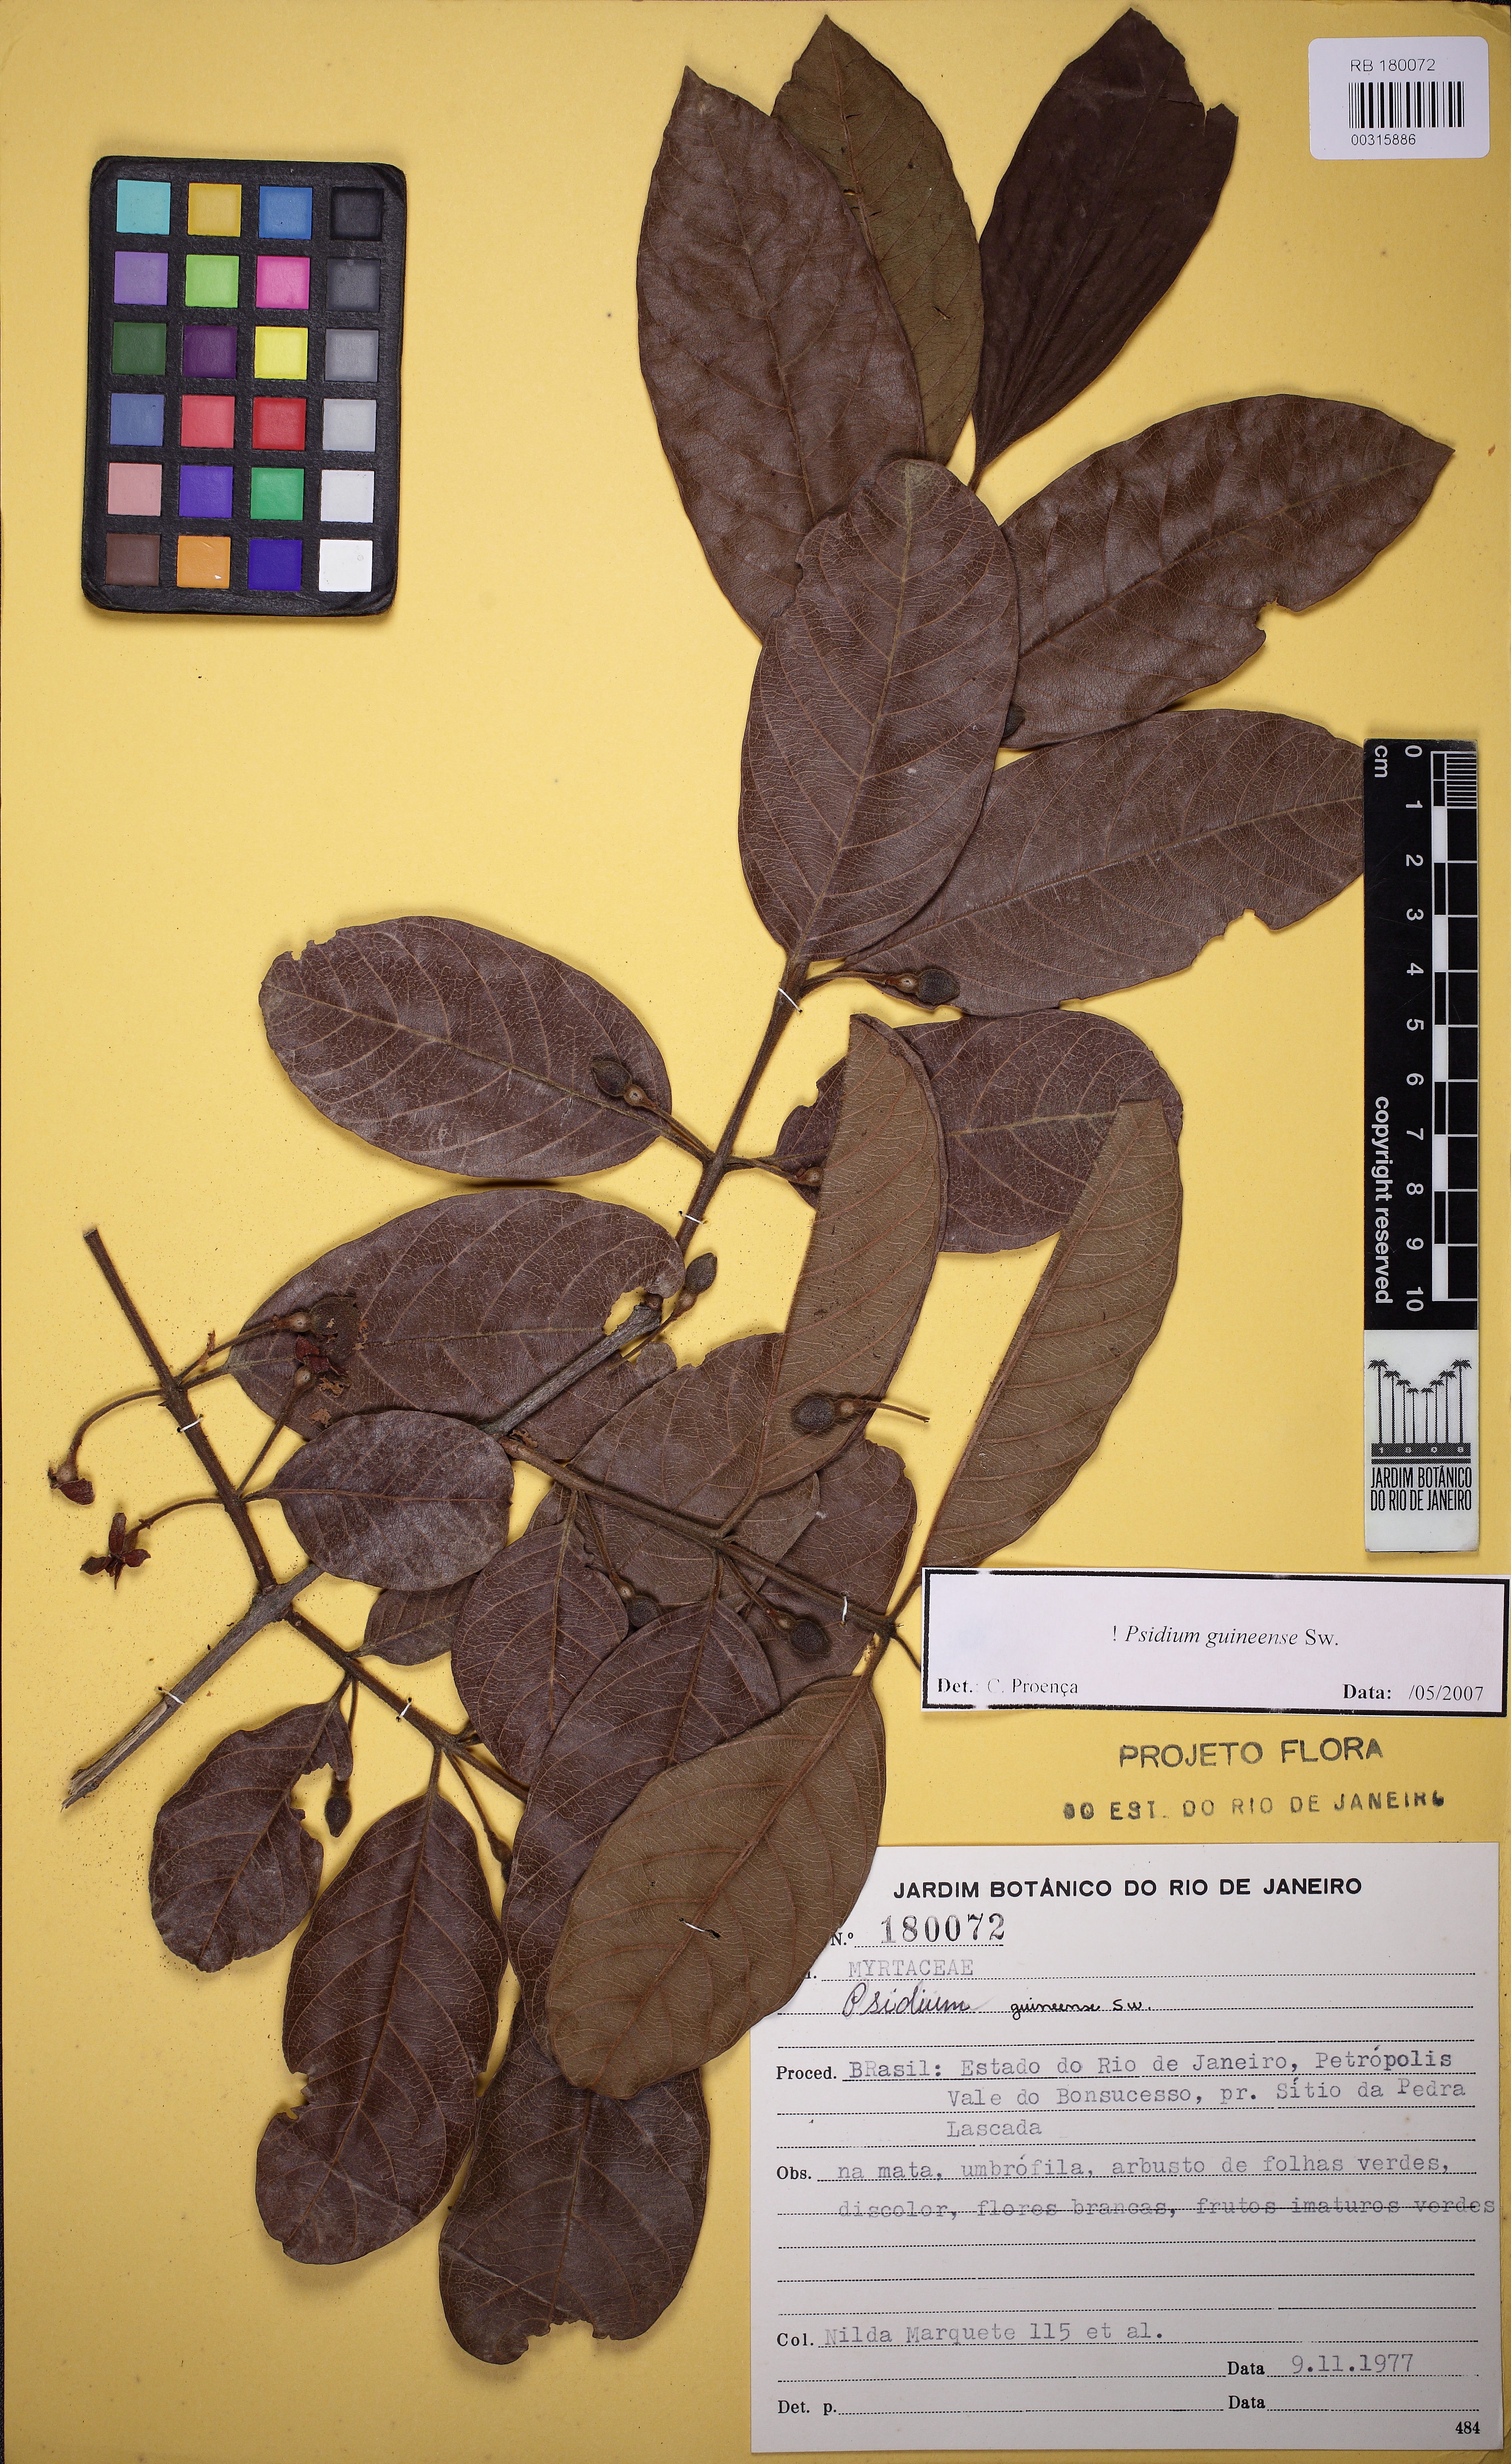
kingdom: Plantae
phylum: Tracheophyta
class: Magnoliopsida
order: Myrtales
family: Myrtaceae
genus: Psidium
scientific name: Psidium guineense
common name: Brazilian guava
